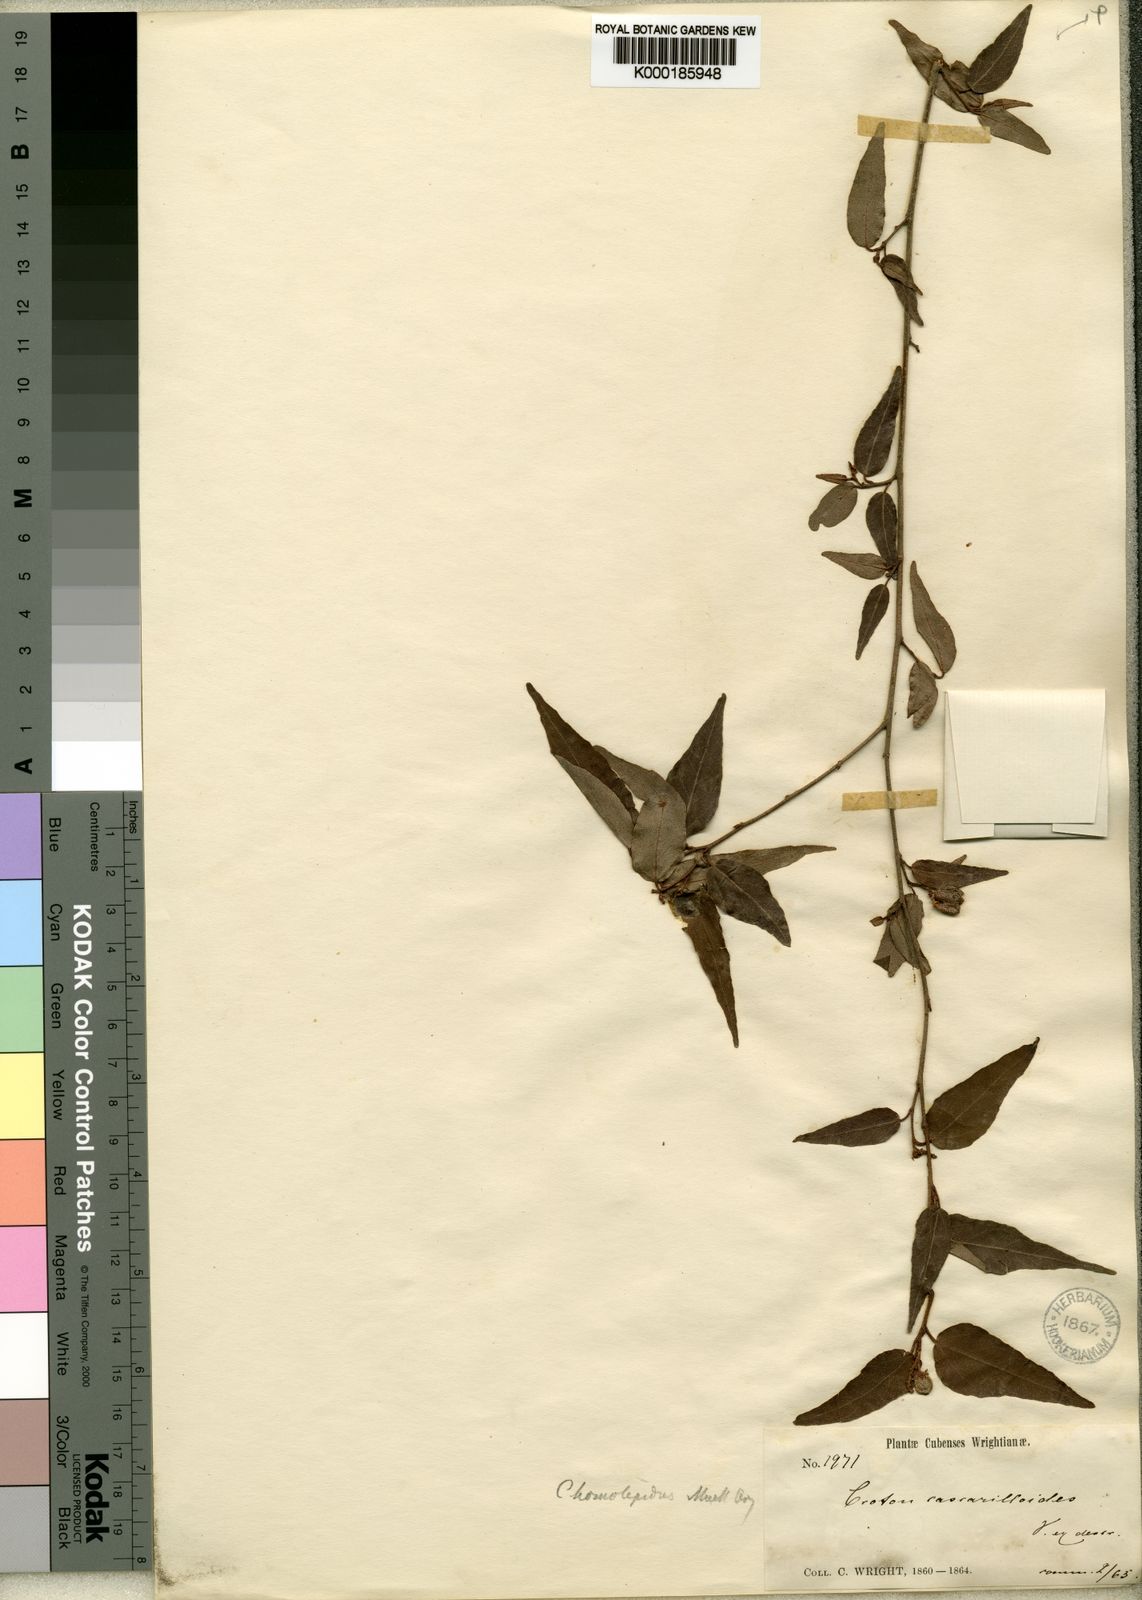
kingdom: Plantae
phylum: Tracheophyta
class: Magnoliopsida
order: Malpighiales
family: Euphorbiaceae
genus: Croton
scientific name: Croton eluteria
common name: Seaside balsam
